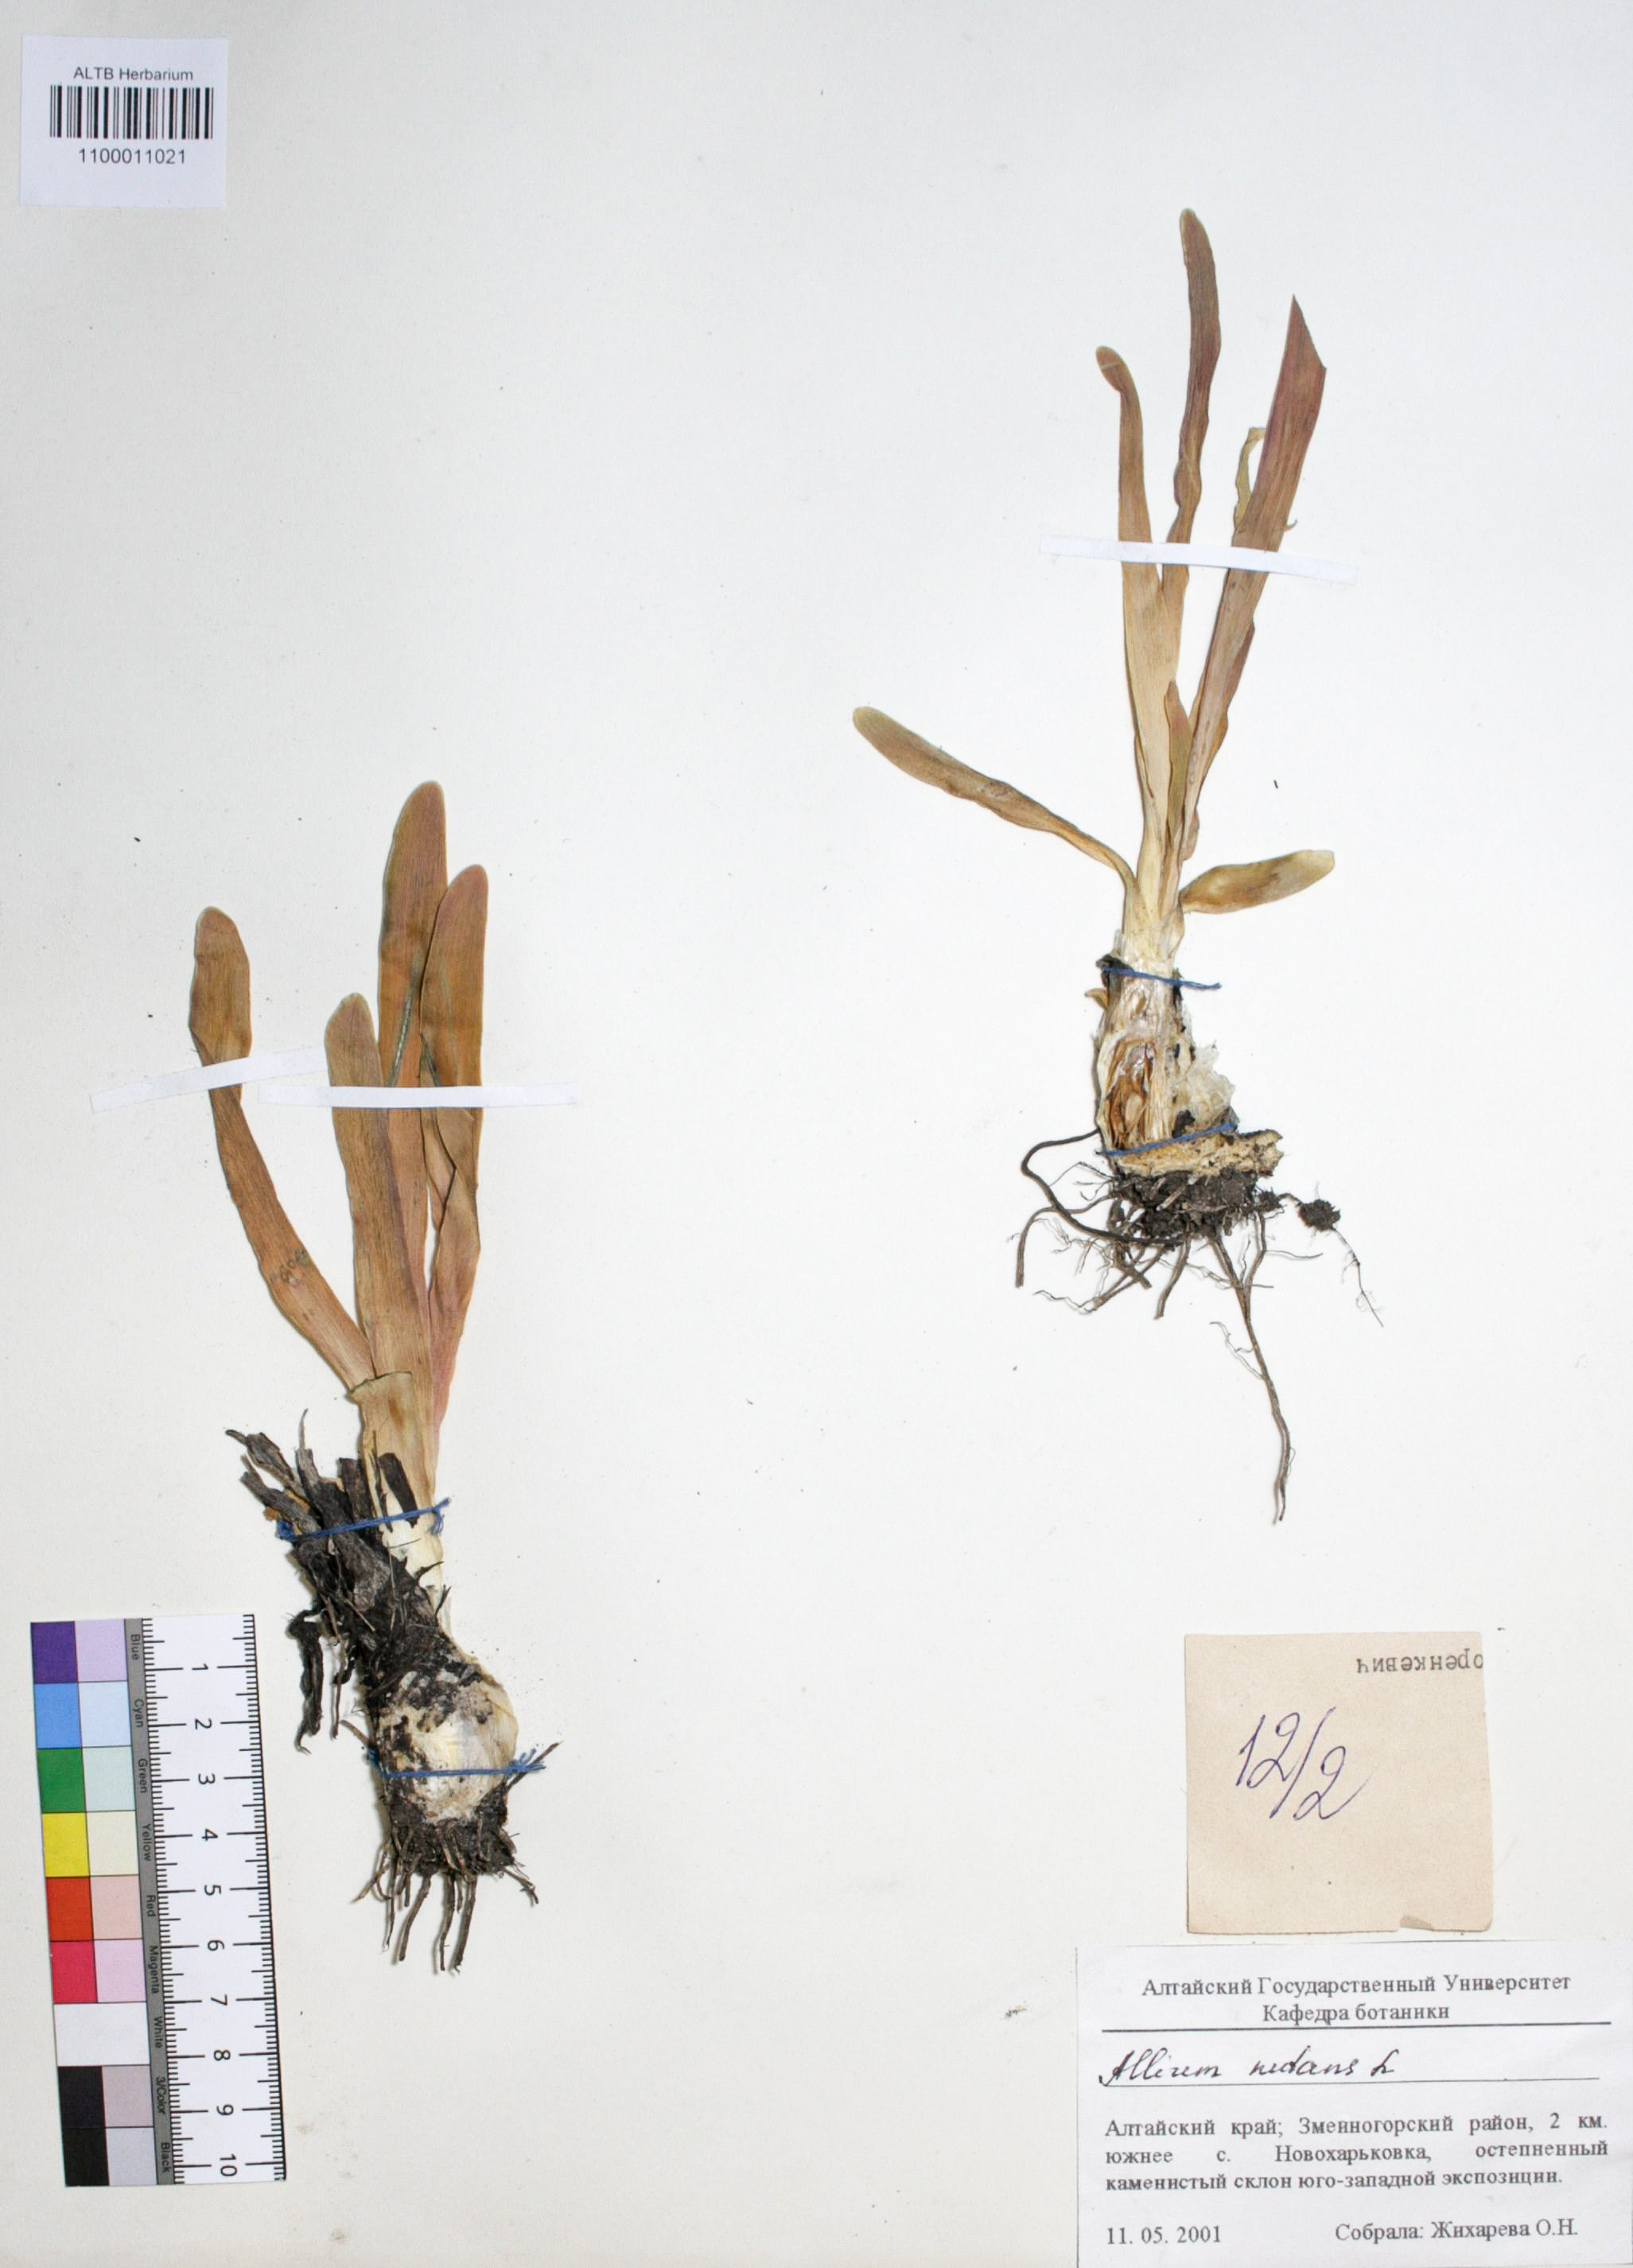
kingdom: Plantae
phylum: Tracheophyta
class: Liliopsida
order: Asparagales
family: Amaryllidaceae
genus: Allium
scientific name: Allium nutans
